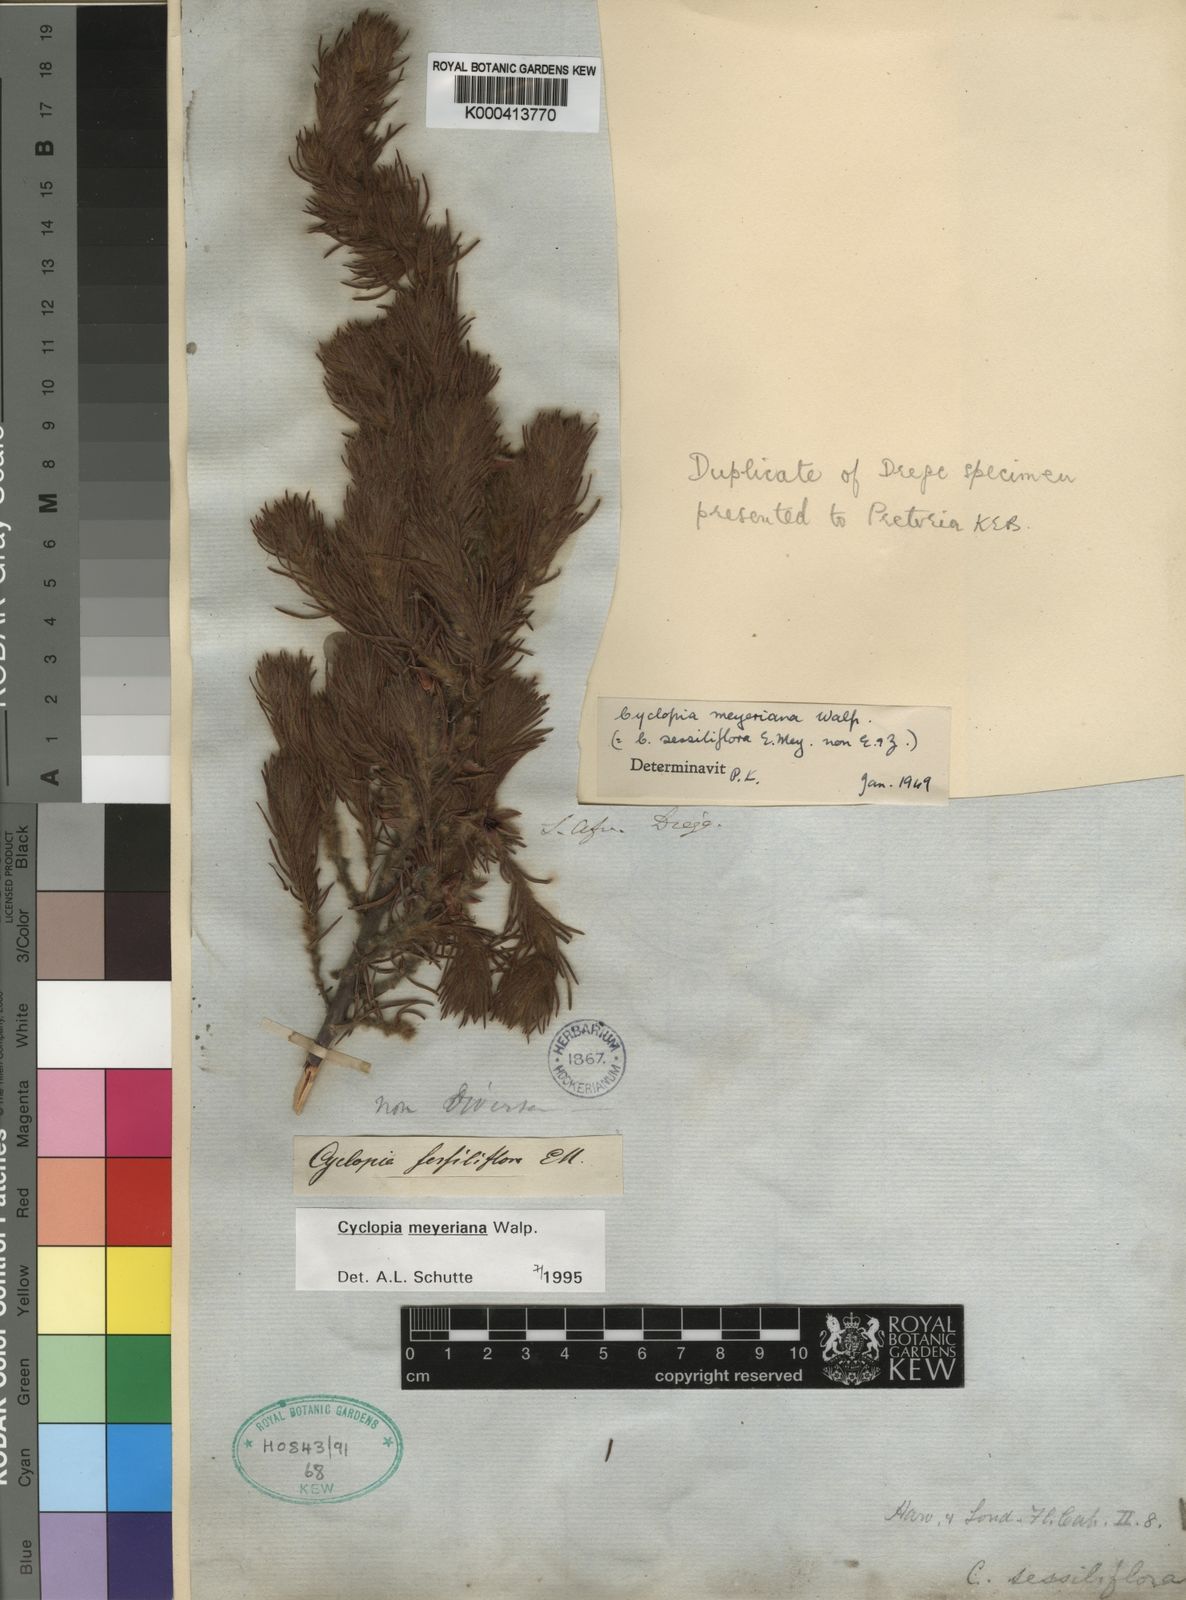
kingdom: Plantae
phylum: Tracheophyta
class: Magnoliopsida
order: Fabales
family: Fabaceae
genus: Cyclopia
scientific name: Cyclopia meyeriana
